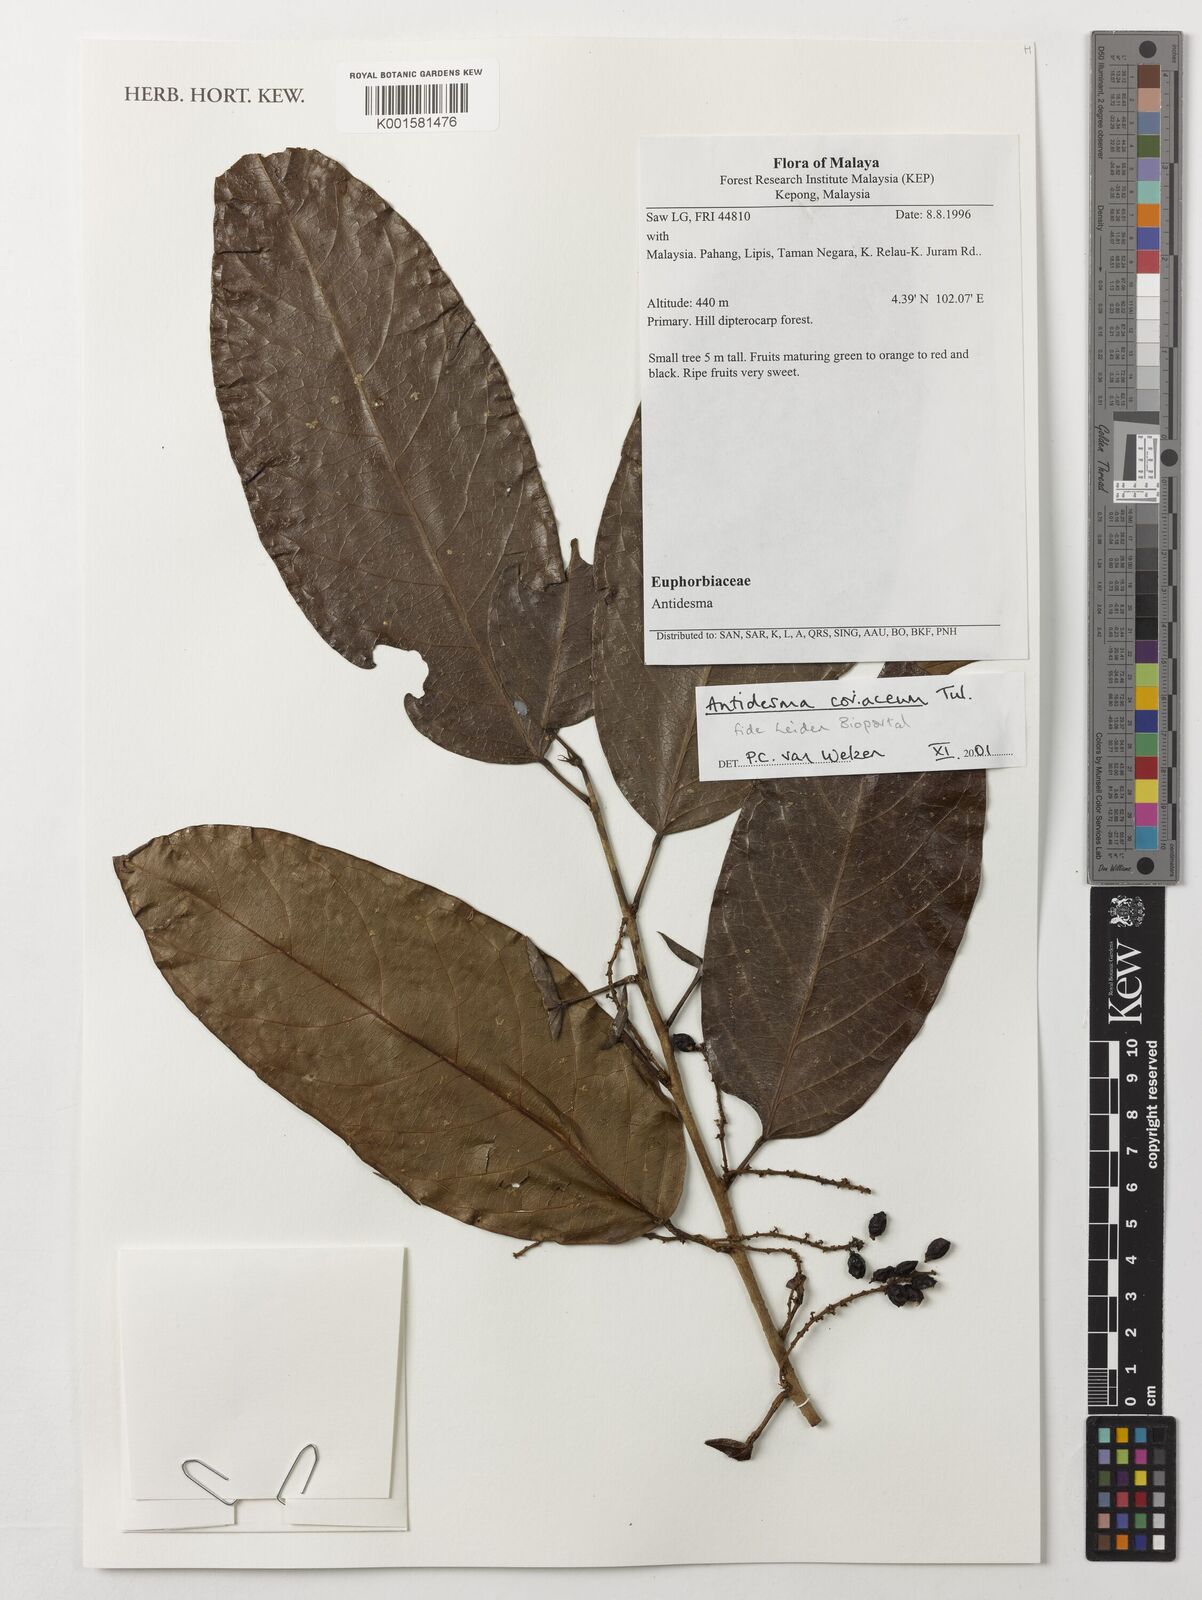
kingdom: Plantae
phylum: Tracheophyta
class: Magnoliopsida
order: Malpighiales
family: Phyllanthaceae
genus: Antidesma
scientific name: Antidesma coriaceum
